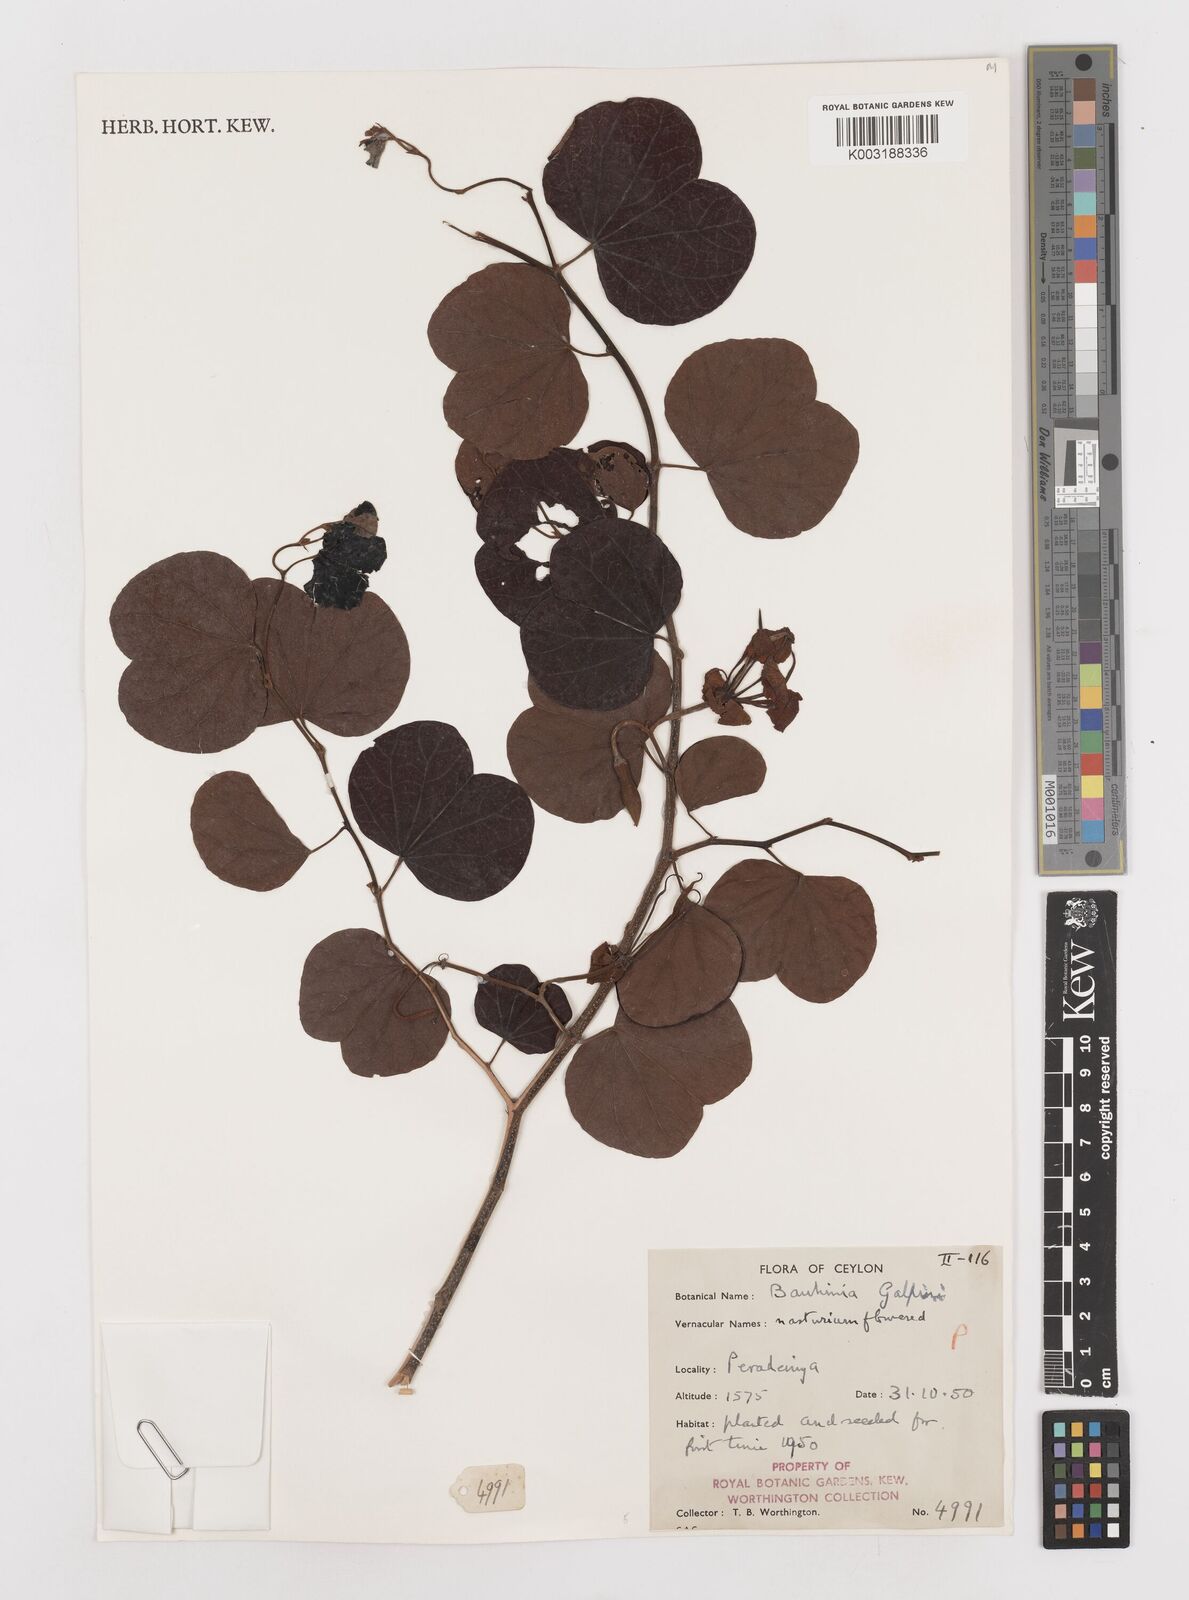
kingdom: Plantae
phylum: Tracheophyta
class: Magnoliopsida
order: Fabales
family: Fabaceae
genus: Bauhinia
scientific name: Bauhinia galpinii
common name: African plume
